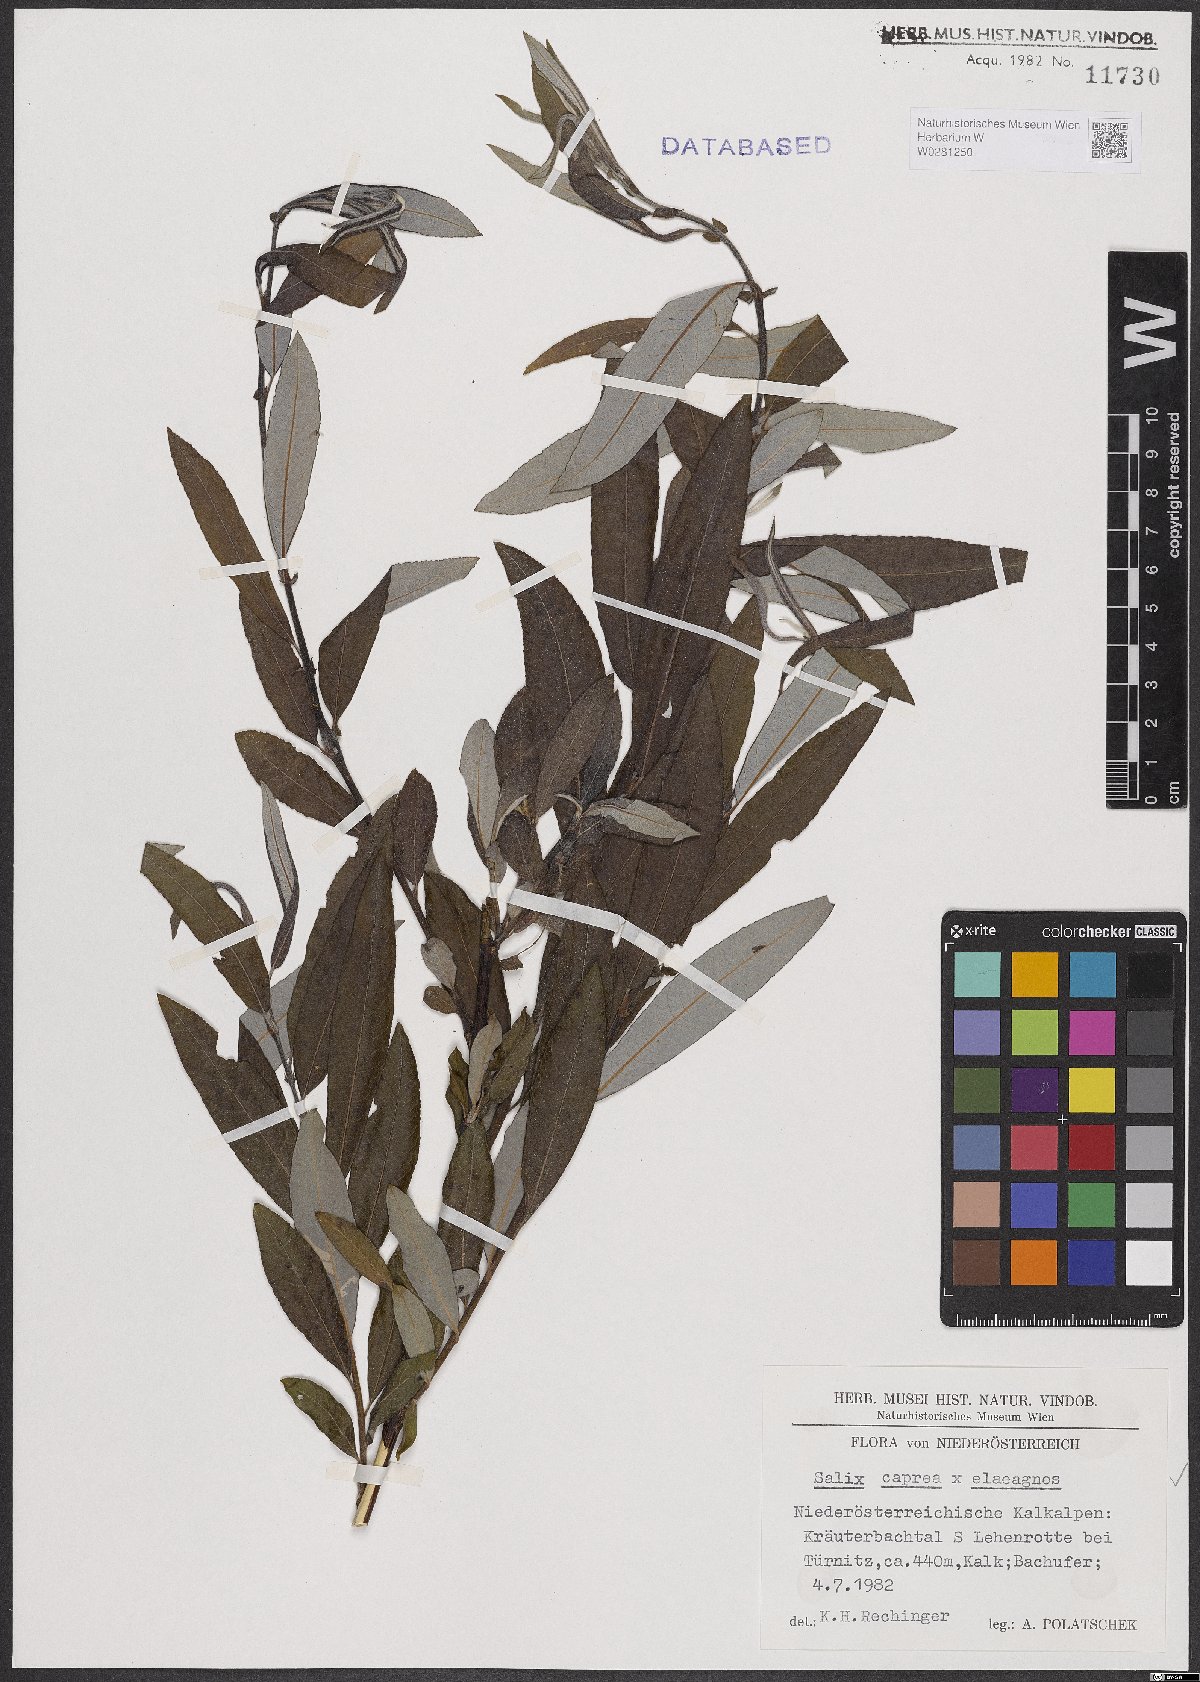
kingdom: Plantae
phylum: Tracheophyta
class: Magnoliopsida
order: Malpighiales
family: Salicaceae
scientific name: Salicaceae
